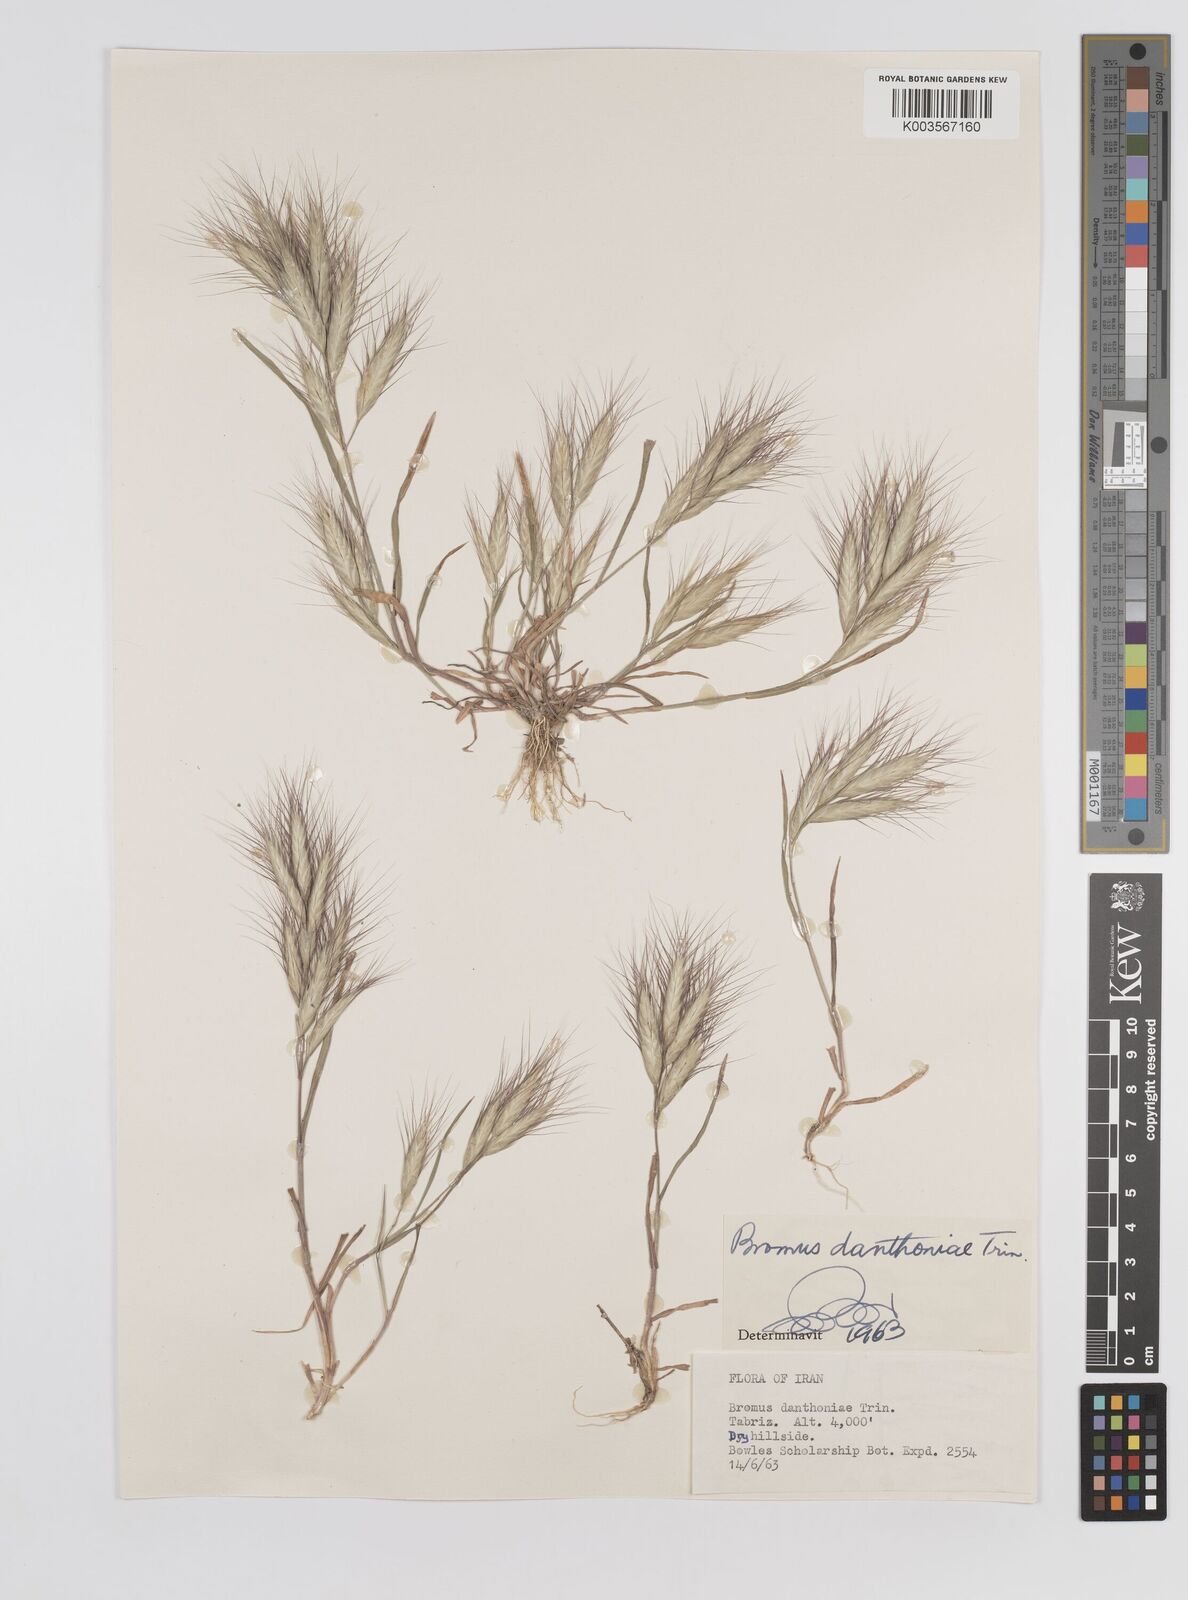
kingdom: Plantae
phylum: Tracheophyta
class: Liliopsida
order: Poales
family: Poaceae
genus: Bromus
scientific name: Bromus danthoniae
